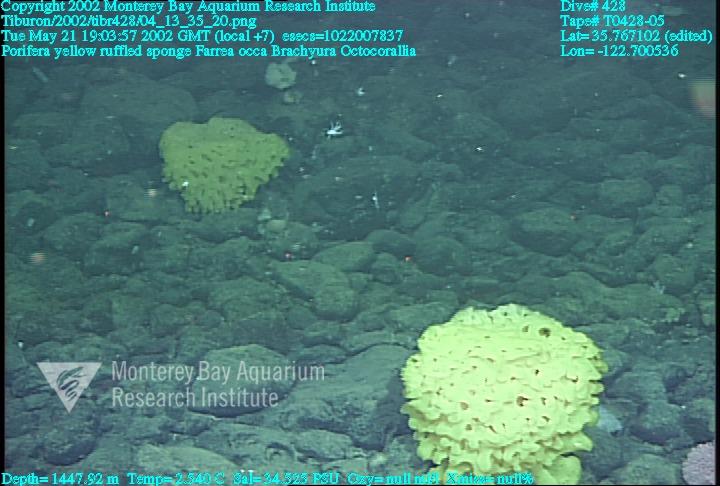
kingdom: Animalia
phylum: Porifera
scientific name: Porifera
